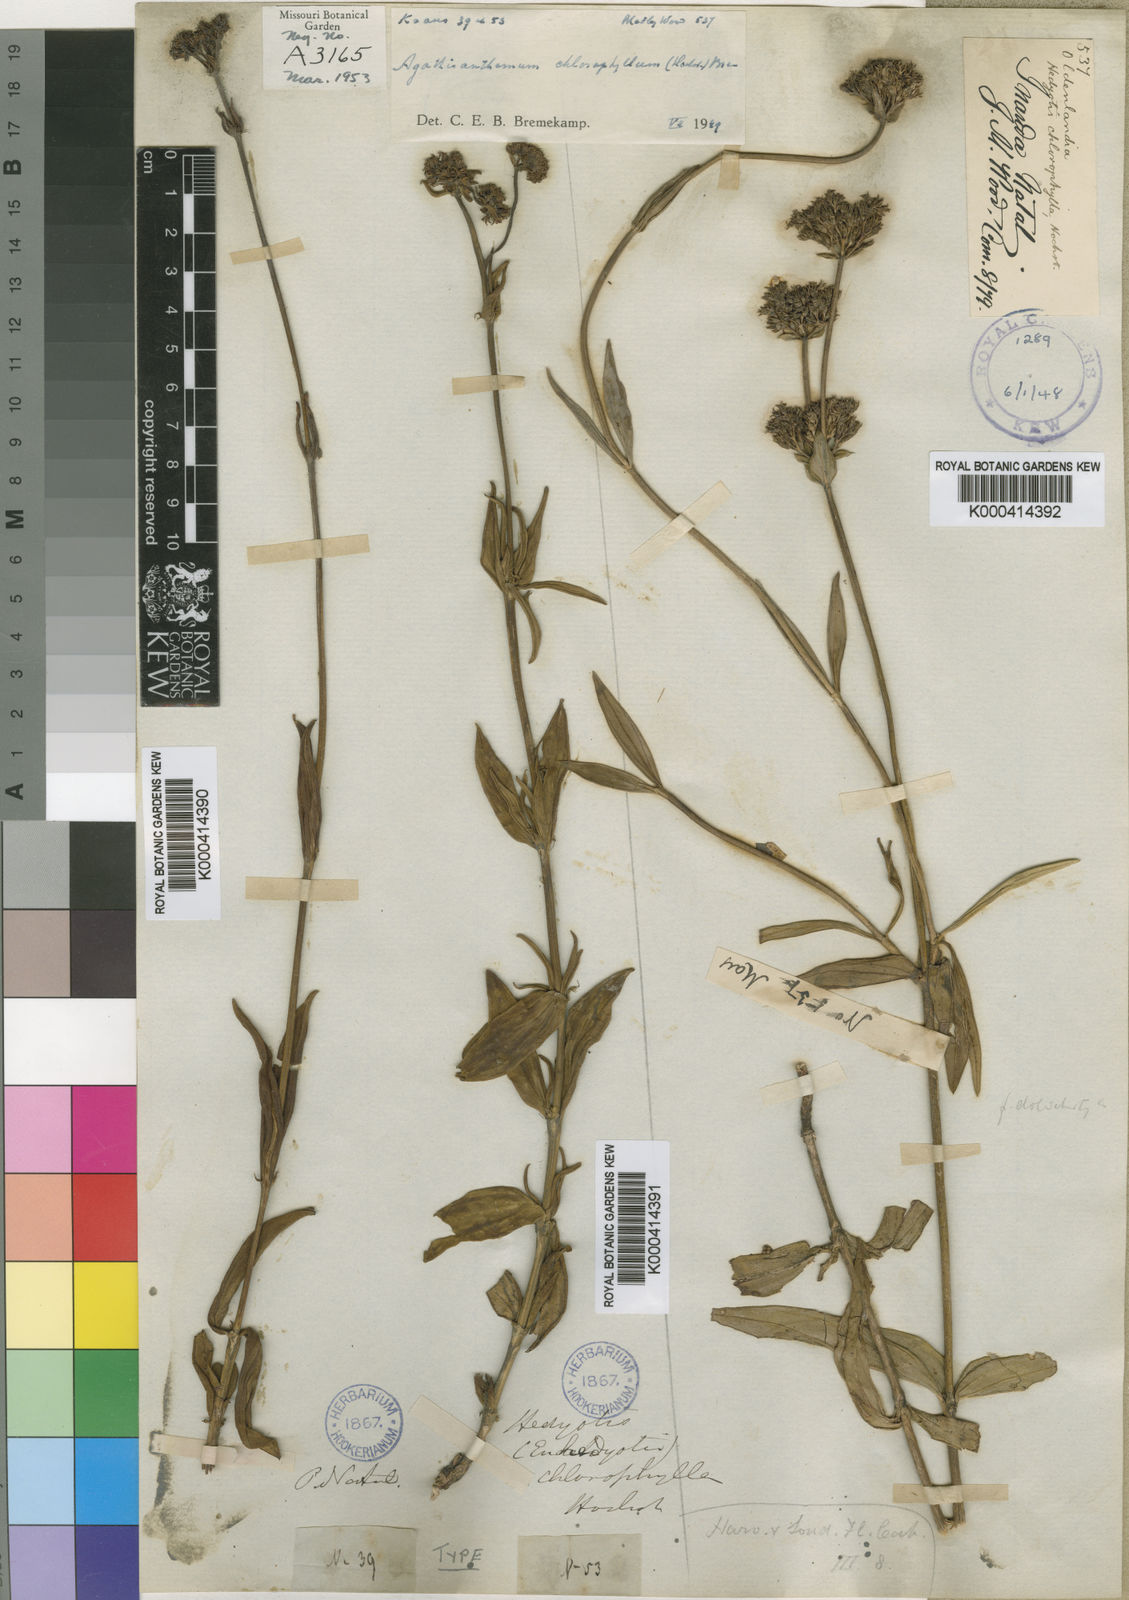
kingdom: Plantae
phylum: Tracheophyta
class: Magnoliopsida
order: Gentianales
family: Rubiaceae
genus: Agathisanthemum
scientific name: Agathisanthemum chlorophyllum
